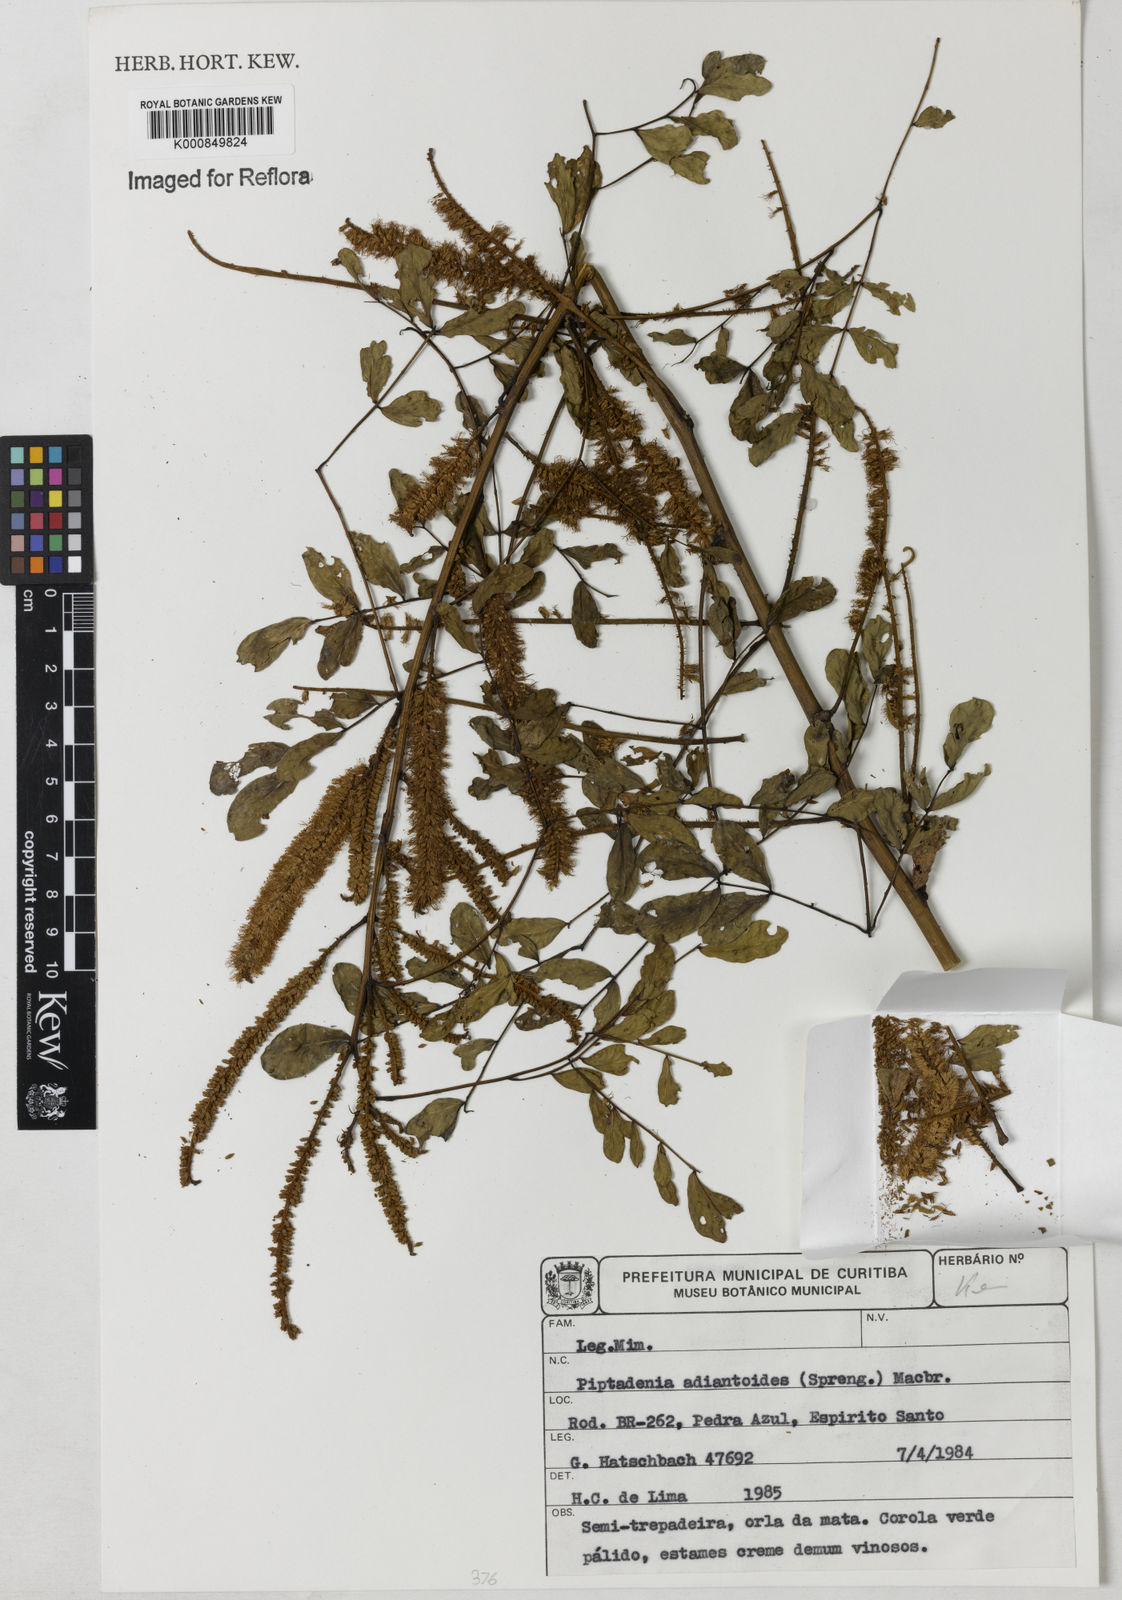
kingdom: Plantae
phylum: Tracheophyta
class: Magnoliopsida
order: Fabales
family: Fabaceae
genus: Piptadenia
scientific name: Piptadenia adiantoides
